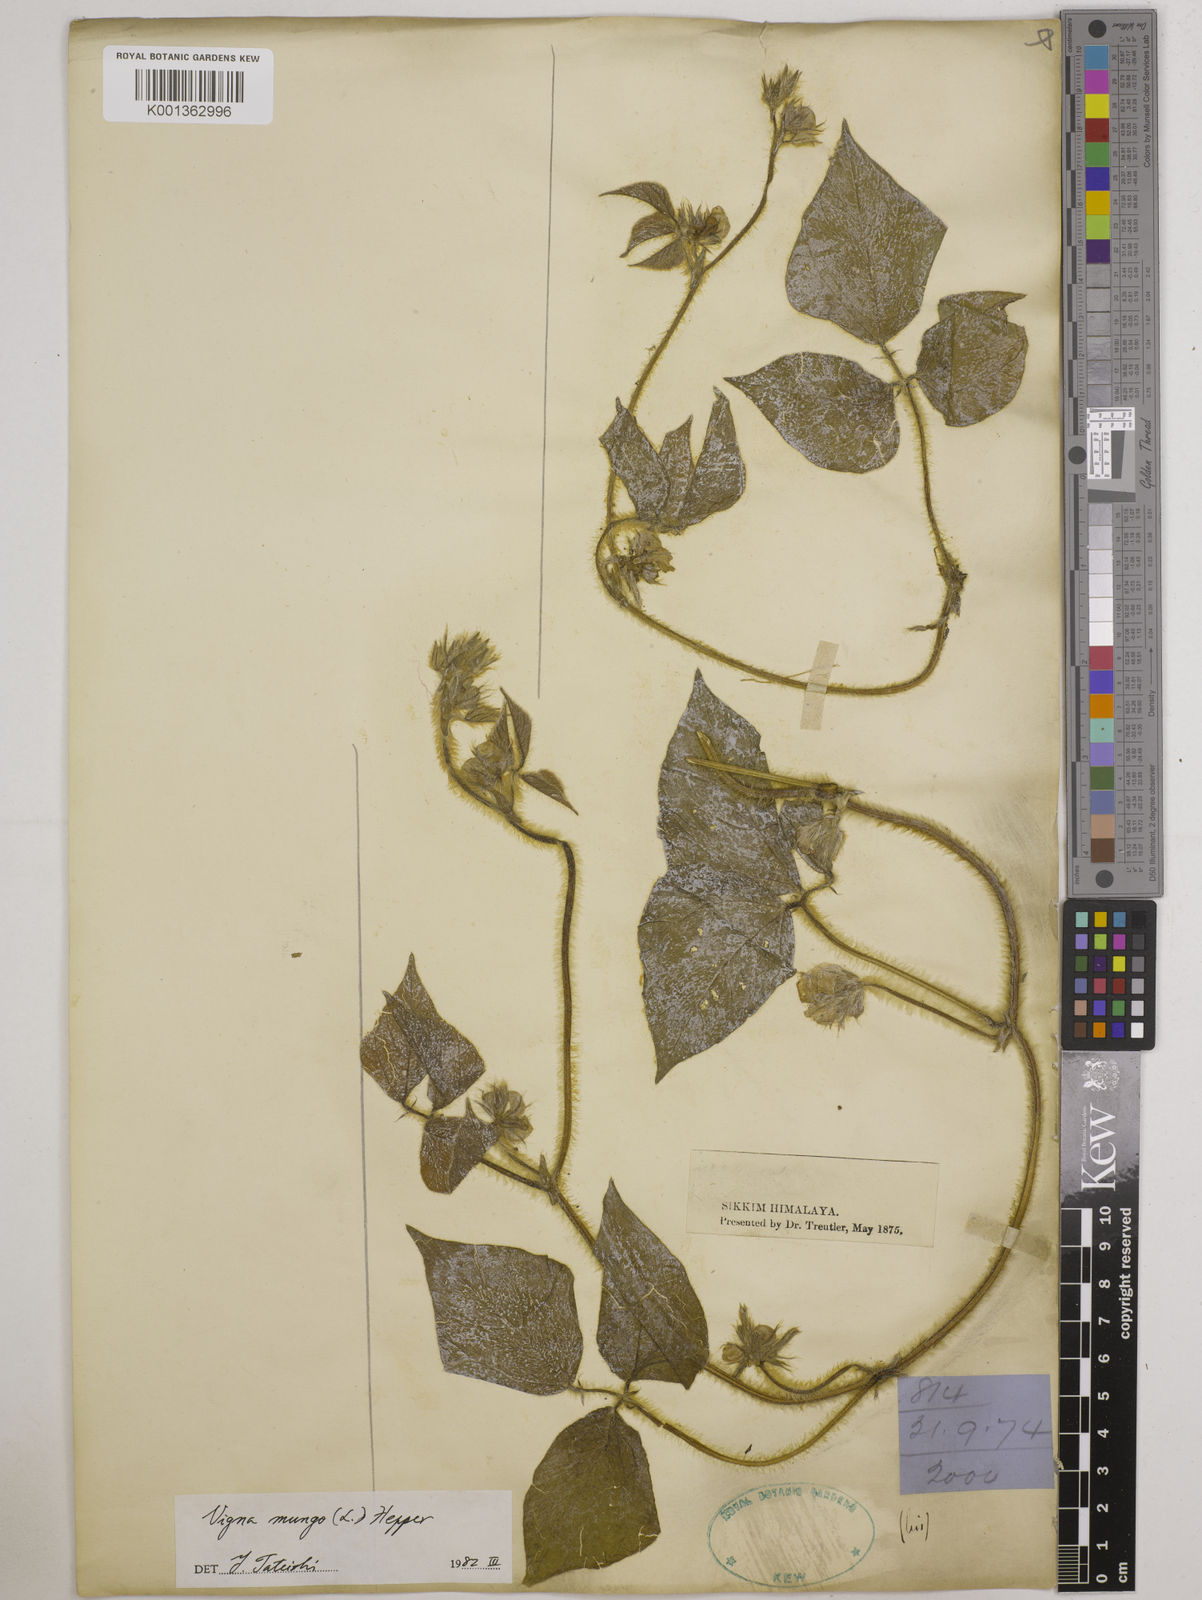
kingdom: Plantae
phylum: Tracheophyta
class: Magnoliopsida
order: Fabales
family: Fabaceae
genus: Vigna
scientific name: Vigna mungo
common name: Black gram
